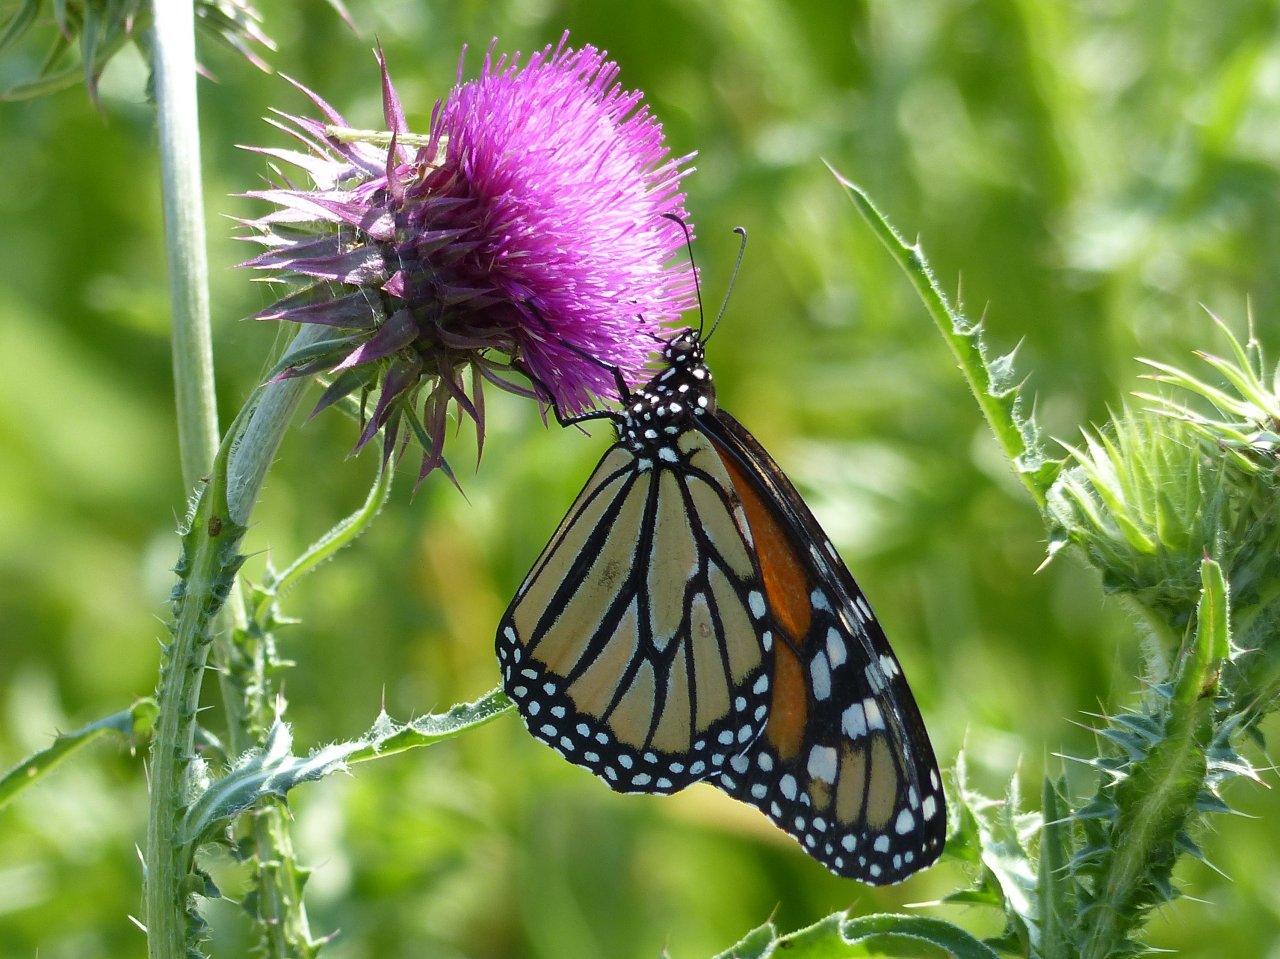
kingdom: Animalia
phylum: Arthropoda
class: Insecta
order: Lepidoptera
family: Nymphalidae
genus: Danaus
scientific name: Danaus plexippus
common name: Monarch
